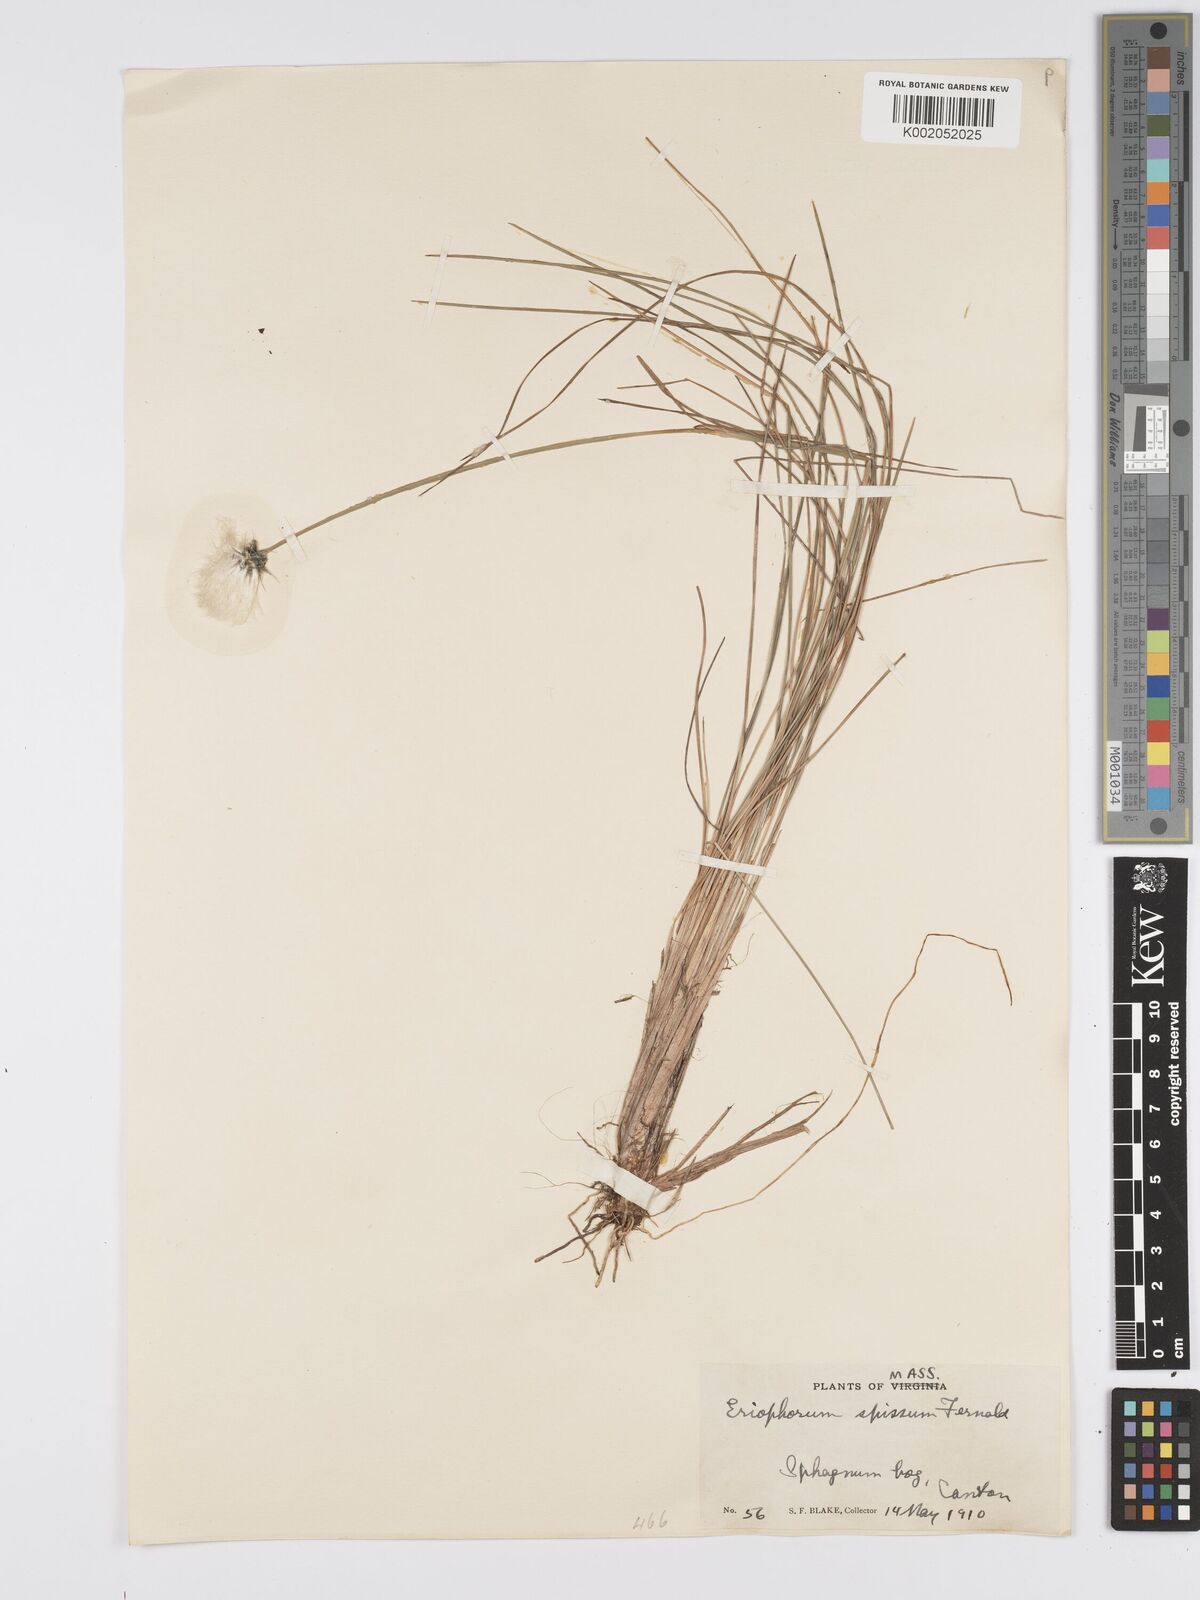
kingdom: Plantae
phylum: Tracheophyta
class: Liliopsida
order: Poales
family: Cyperaceae
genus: Eriophorum
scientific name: Eriophorum vaginatum
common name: Hare's-tail cottongrass
